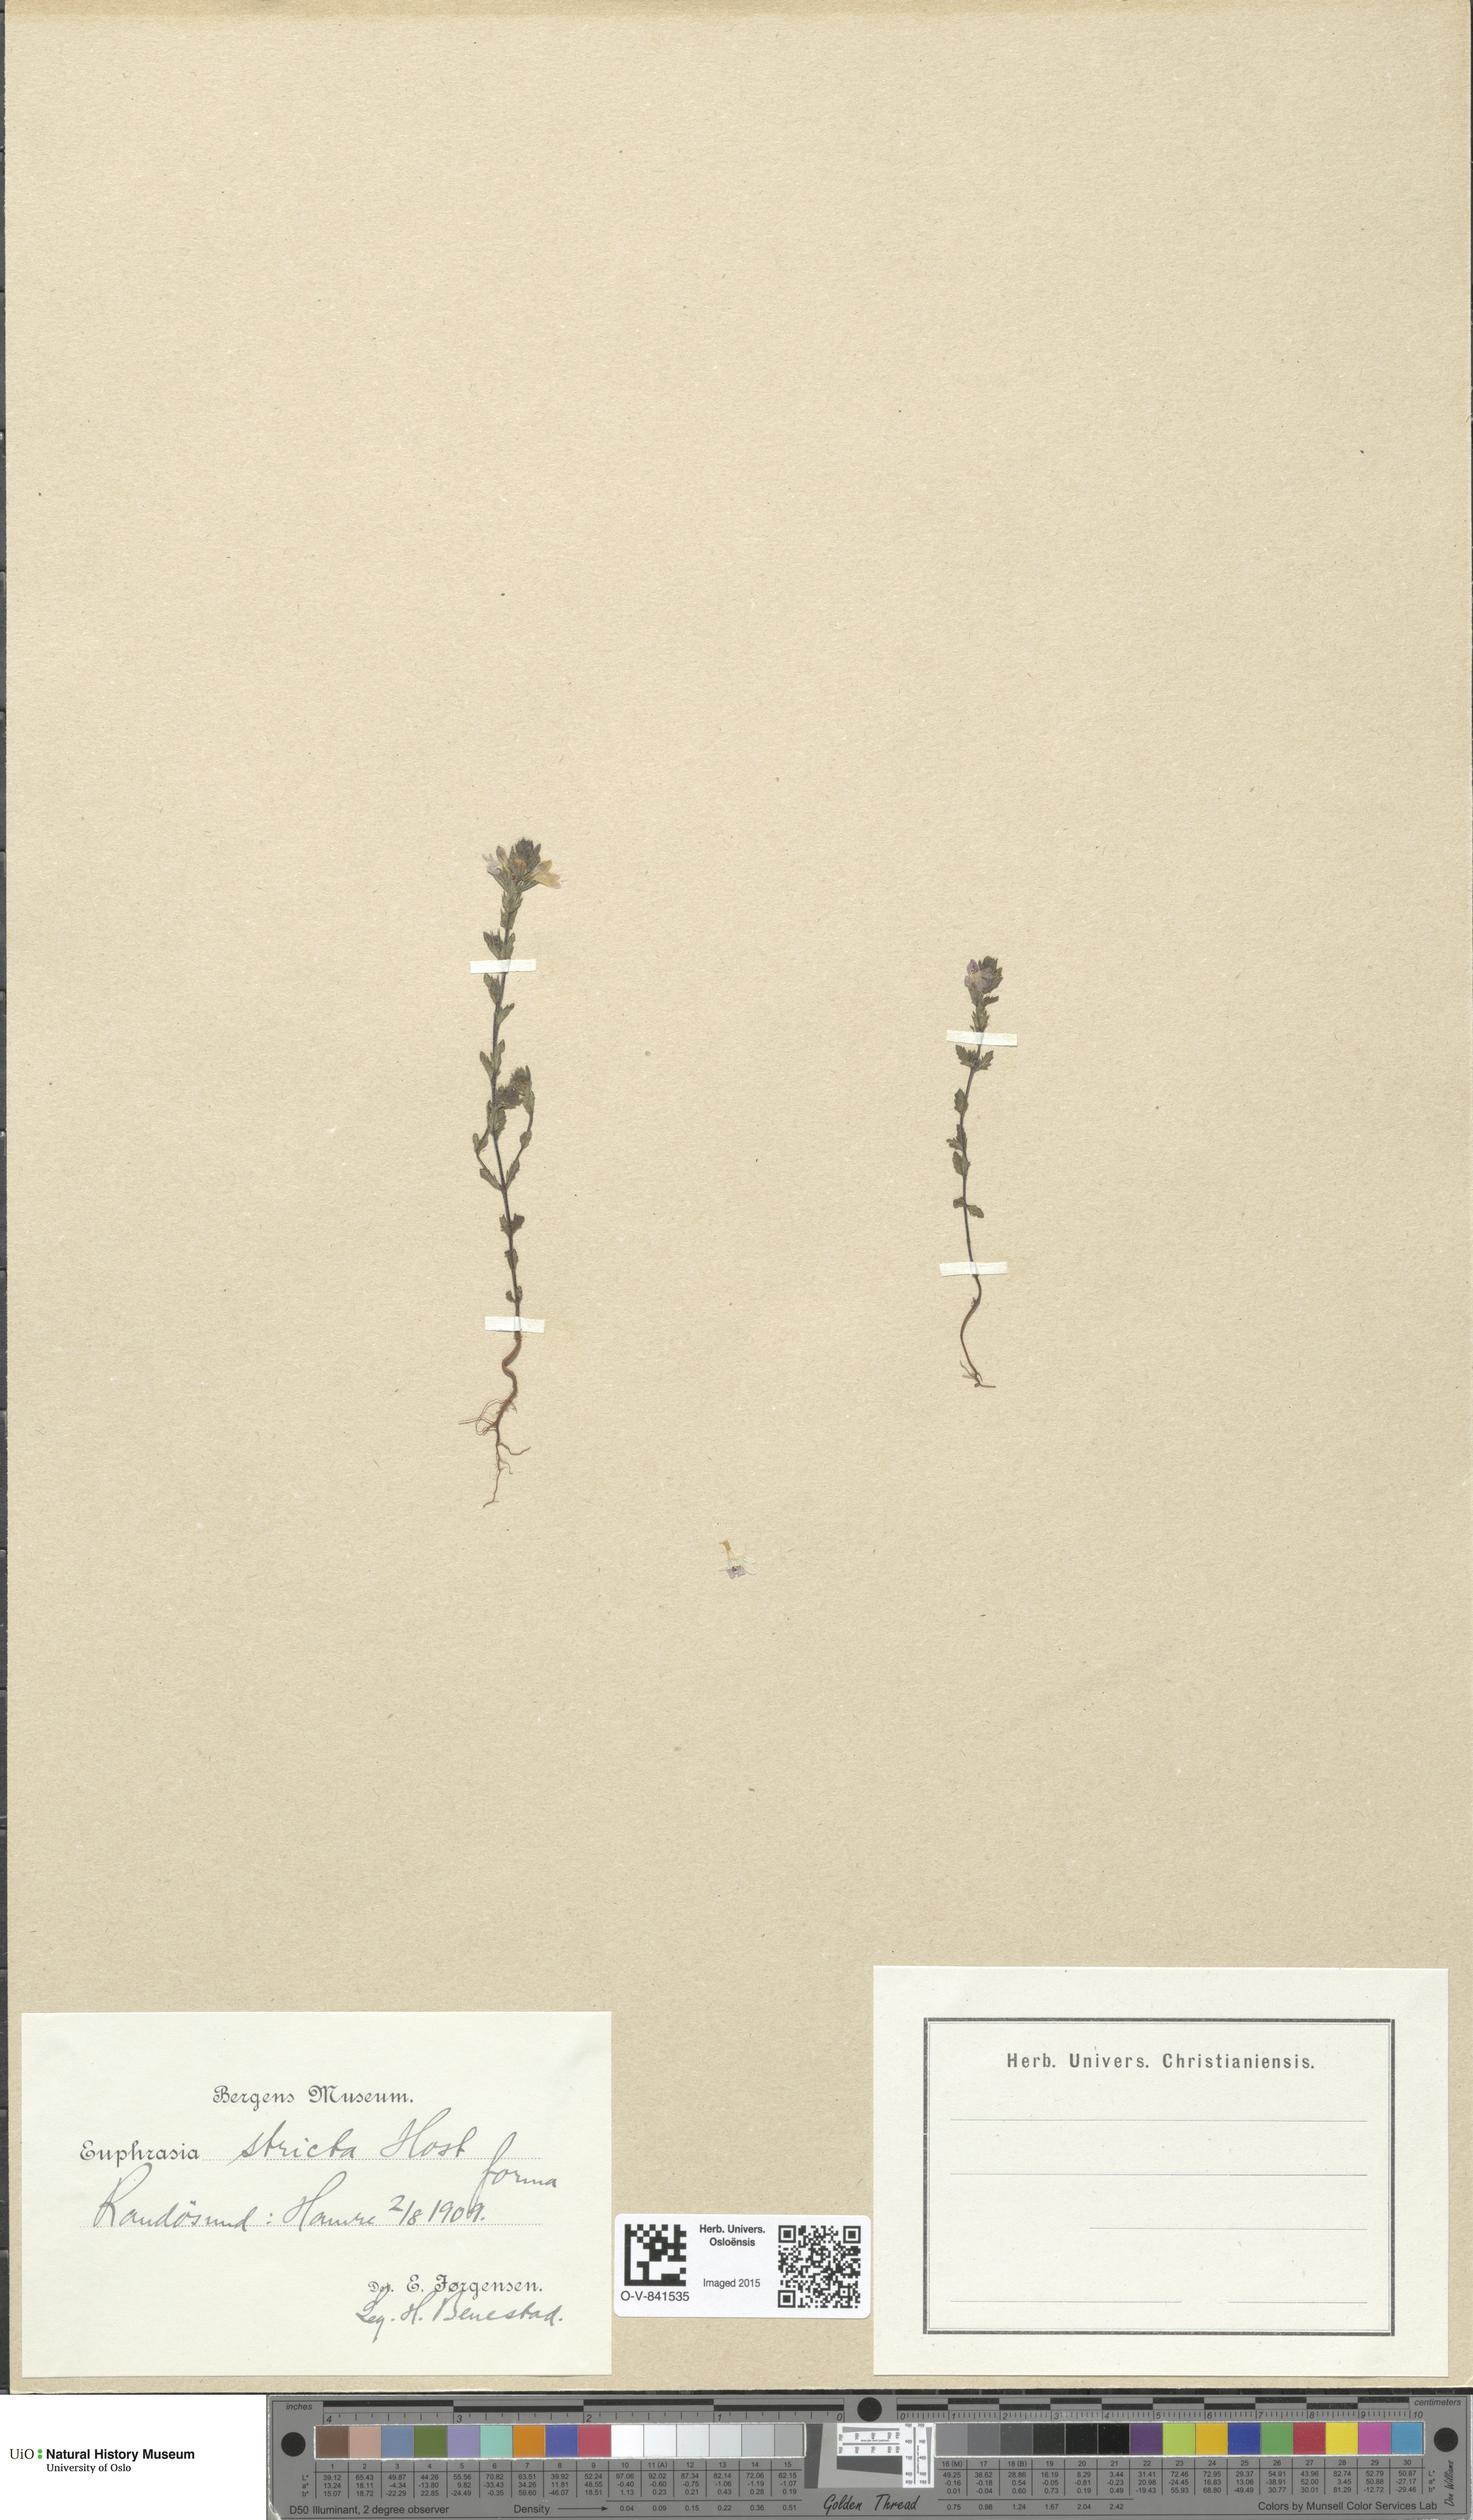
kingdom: Plantae
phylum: Tracheophyta
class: Magnoliopsida
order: Lamiales
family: Orobanchaceae
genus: Euphrasia
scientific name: Euphrasia stricta
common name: Drug eyebright
